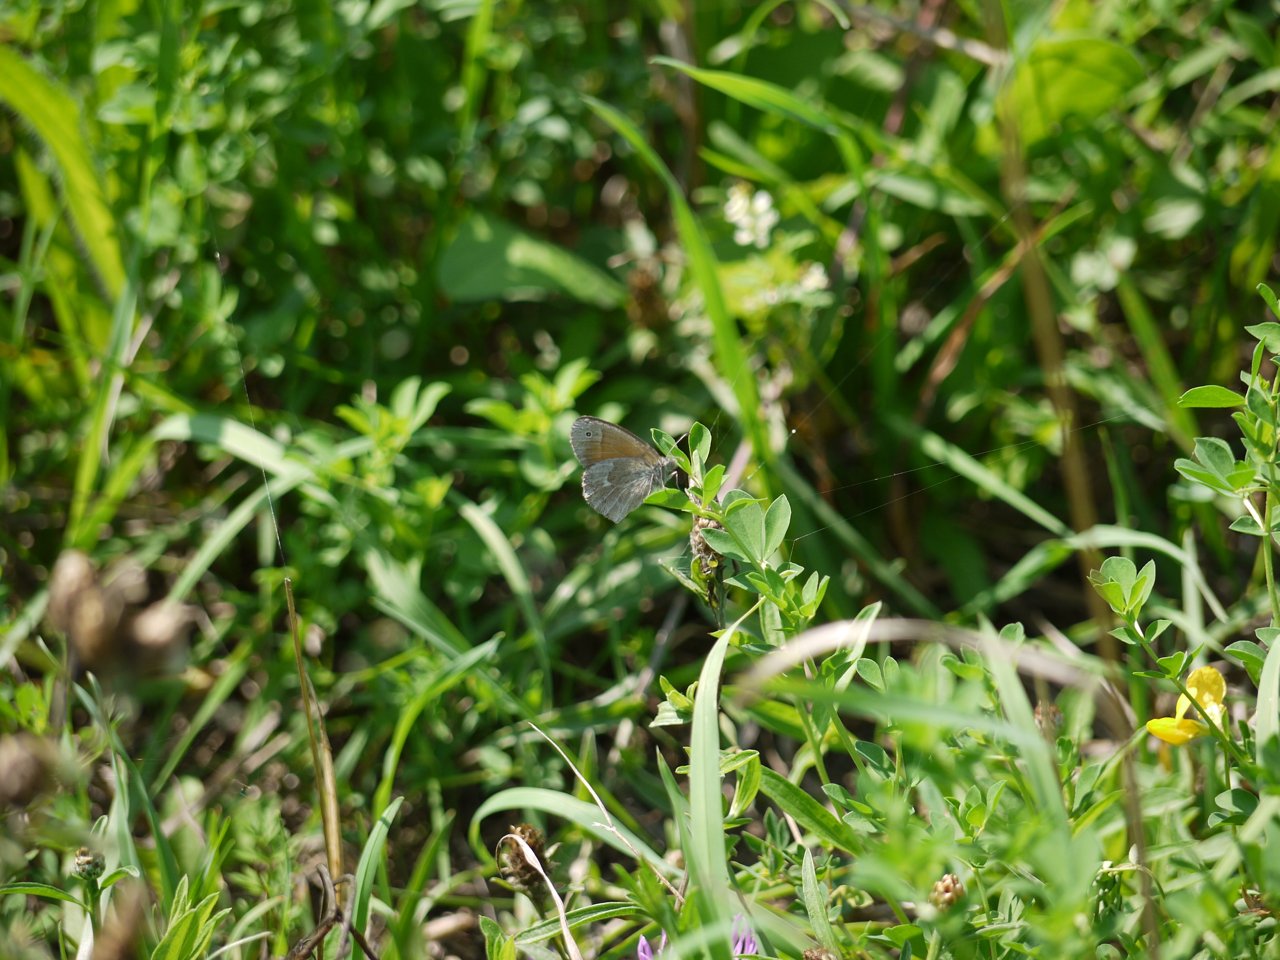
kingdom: Animalia
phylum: Arthropoda
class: Insecta
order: Lepidoptera
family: Nymphalidae
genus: Coenonympha
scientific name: Coenonympha tullia
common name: Large Heath
